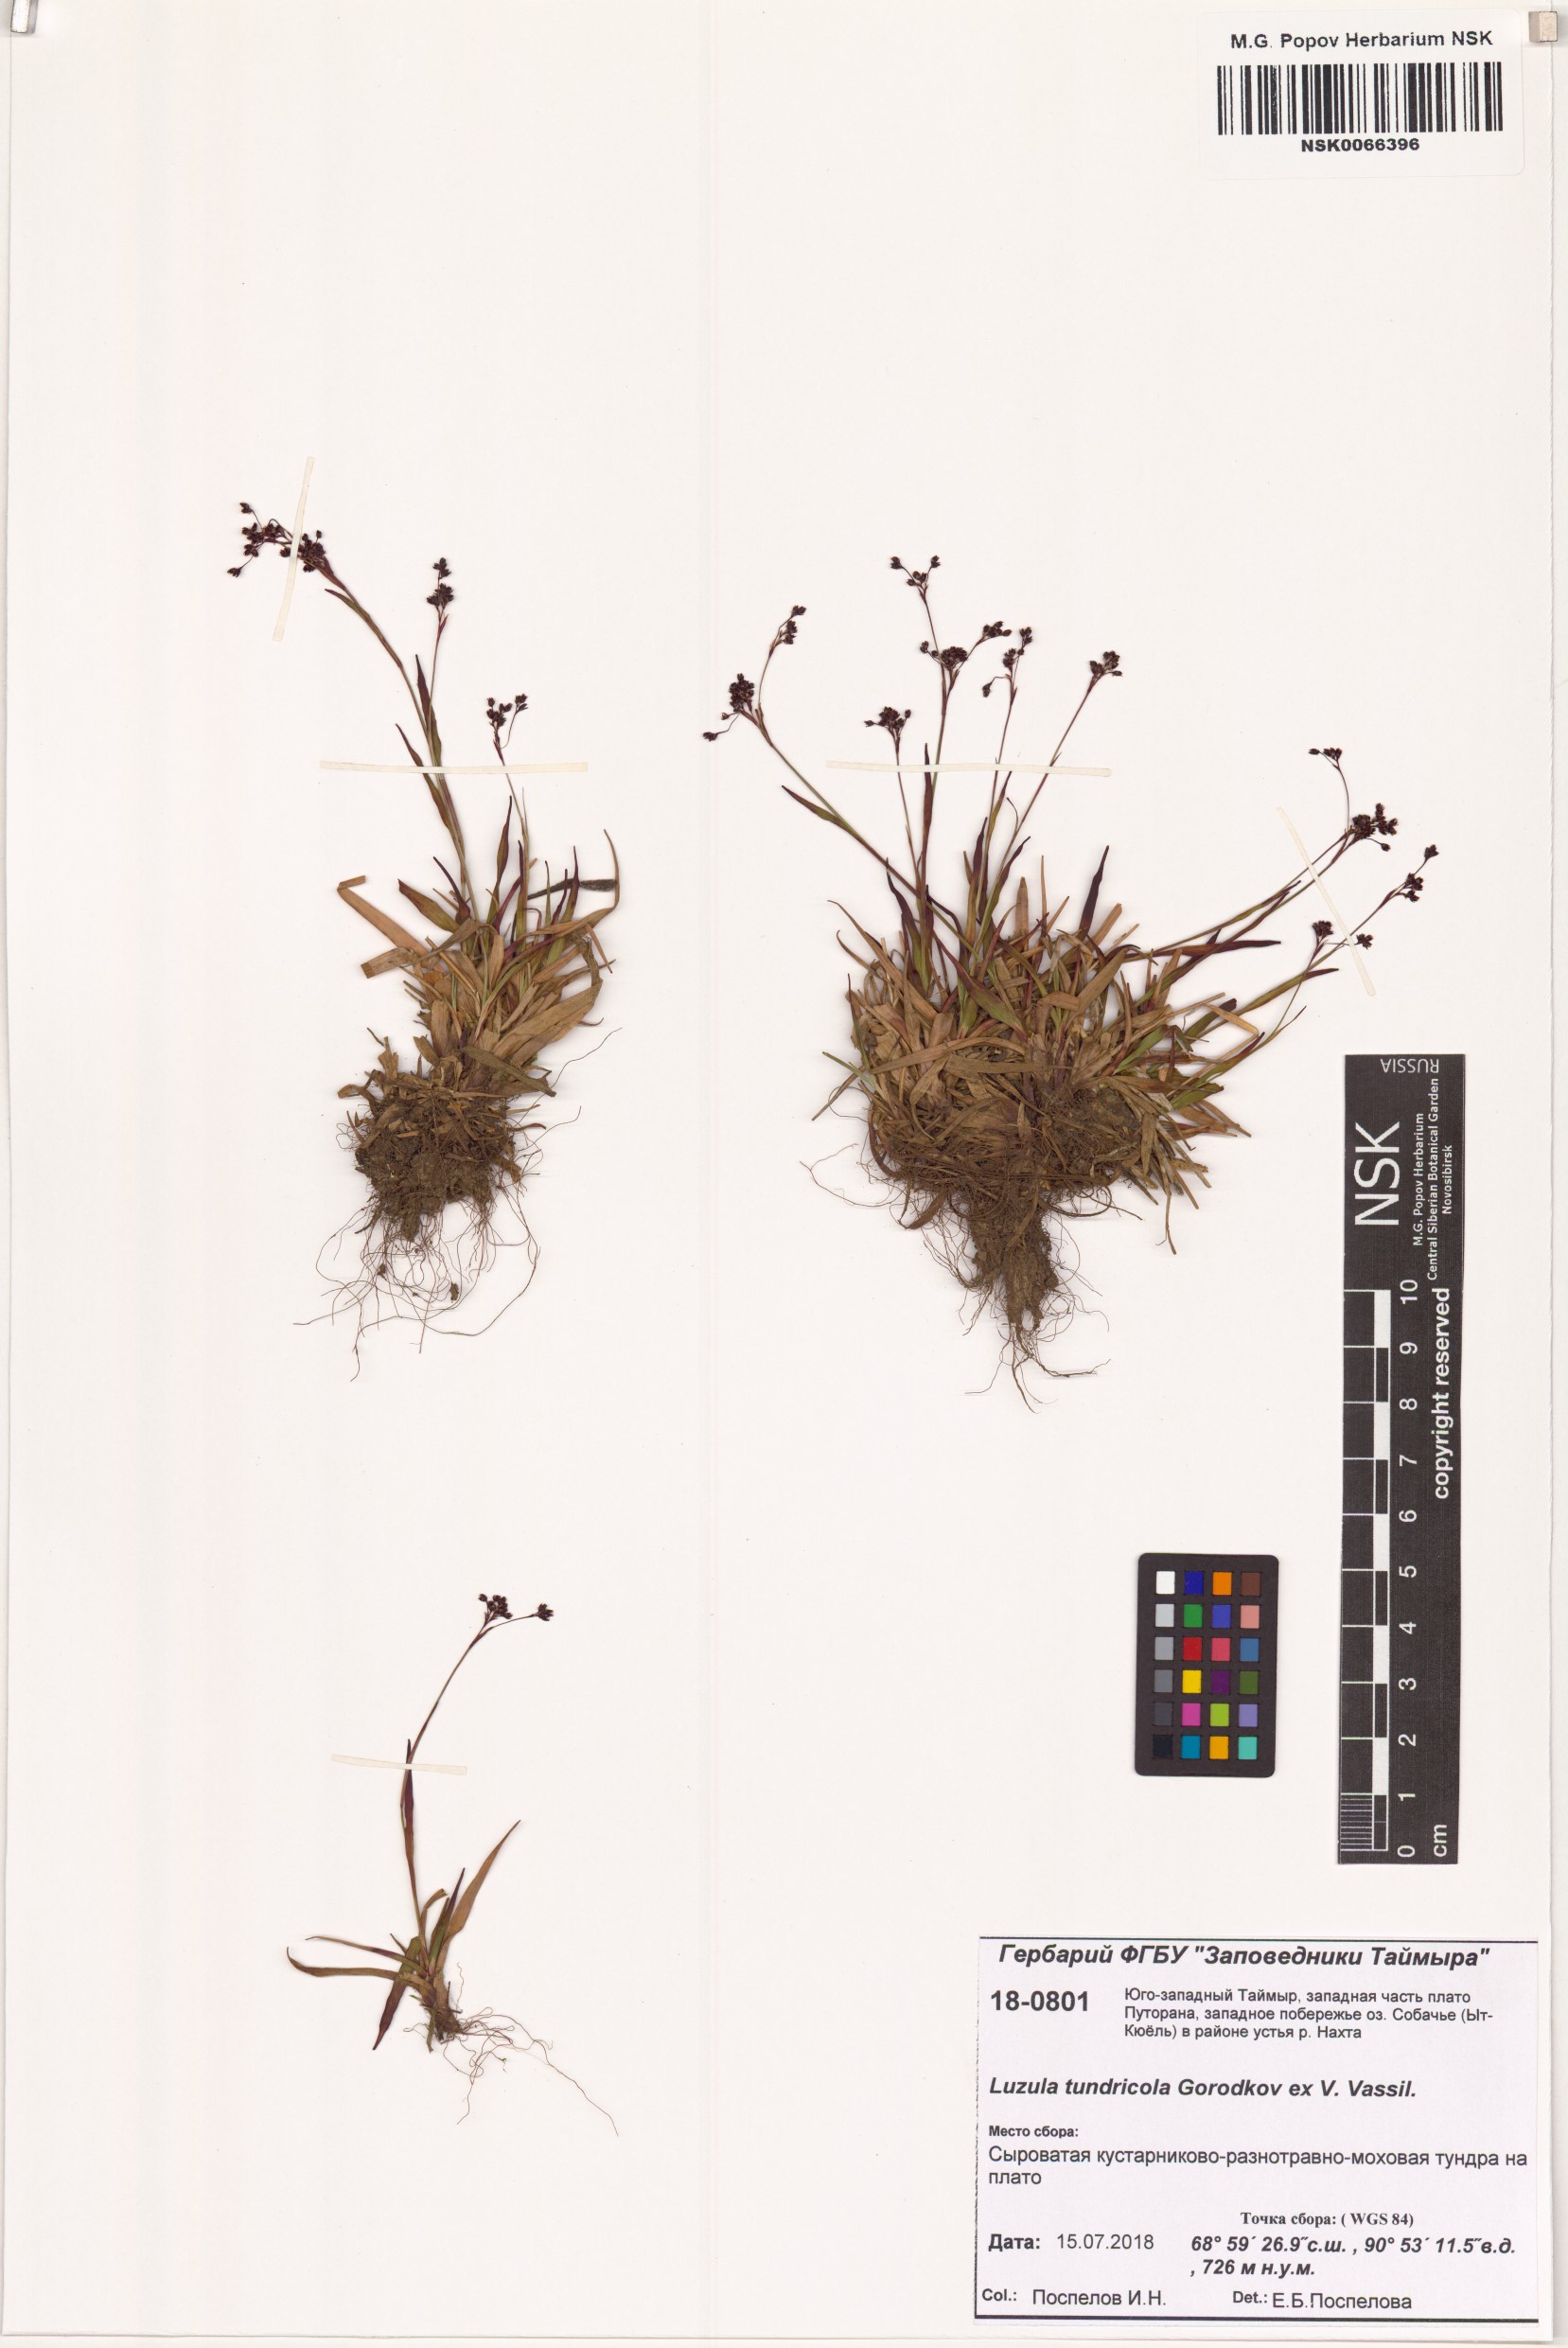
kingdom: Plantae
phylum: Tracheophyta
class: Liliopsida
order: Poales
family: Juncaceae
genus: Luzula
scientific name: Luzula kjellmaniana
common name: Kjellman's woodrush
